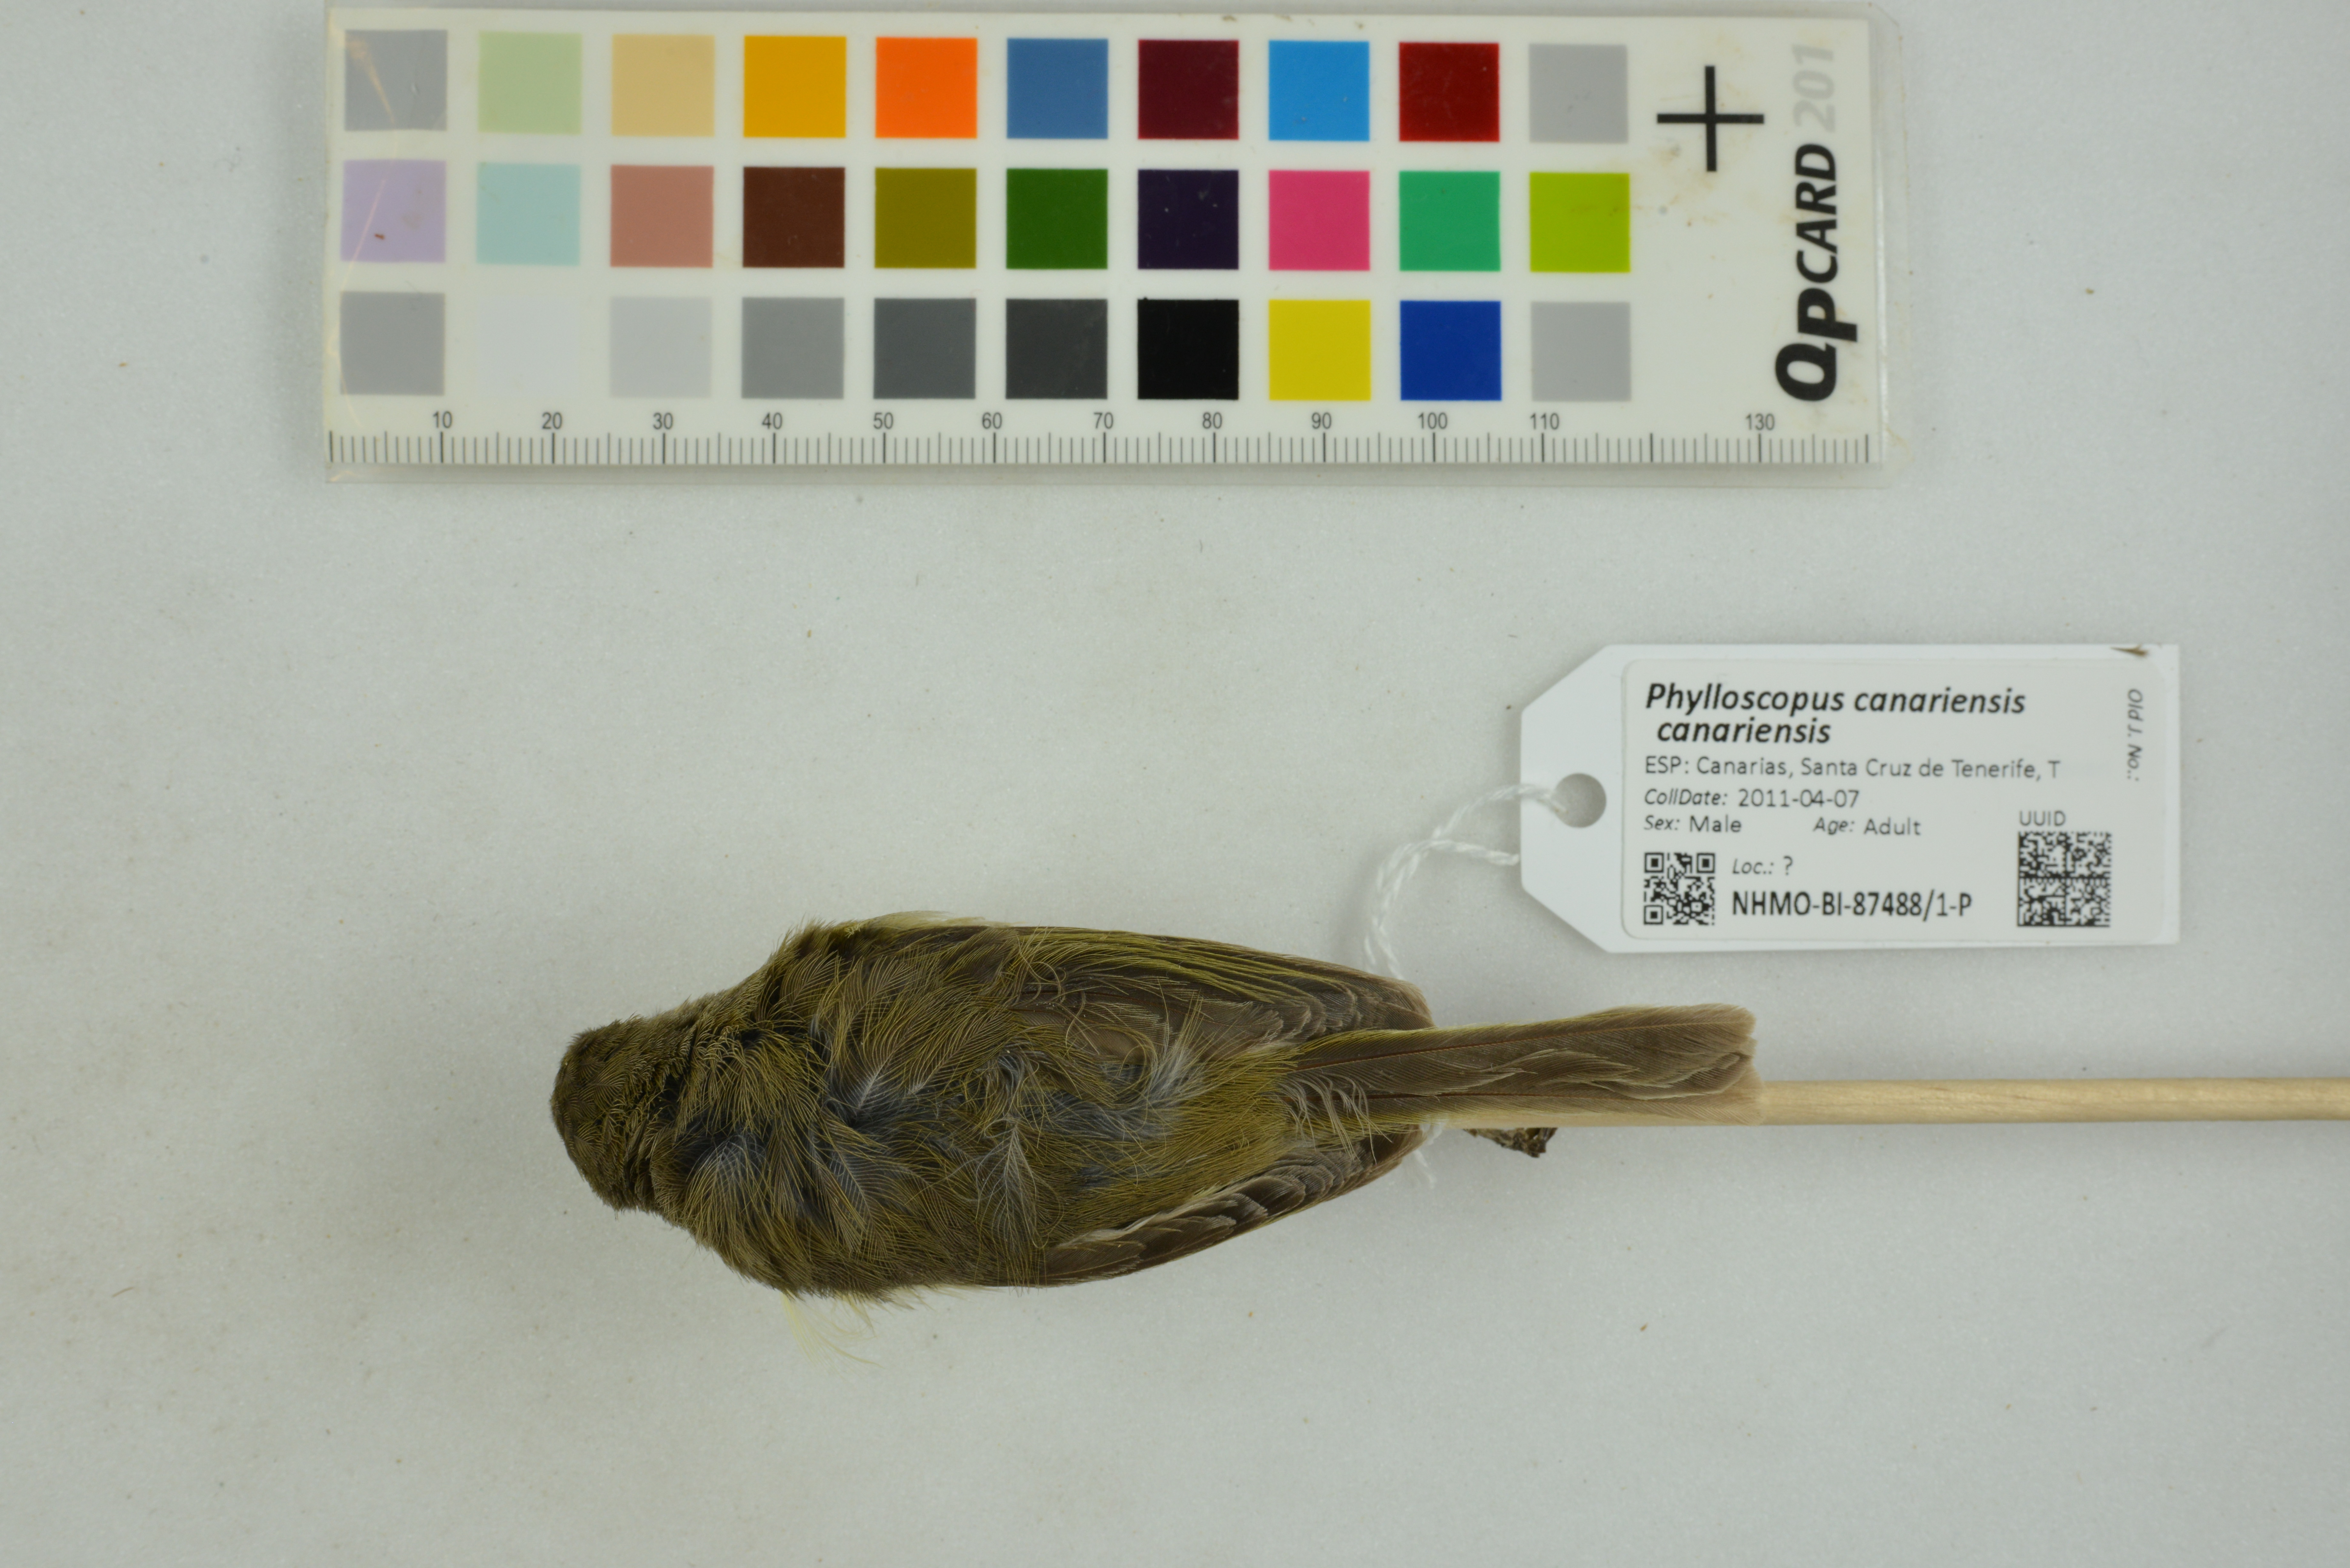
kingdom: Animalia
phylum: Chordata
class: Aves
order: Passeriformes
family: Phylloscopidae
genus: Phylloscopus
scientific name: Phylloscopus canariensis
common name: Canary islands chiffchaff
